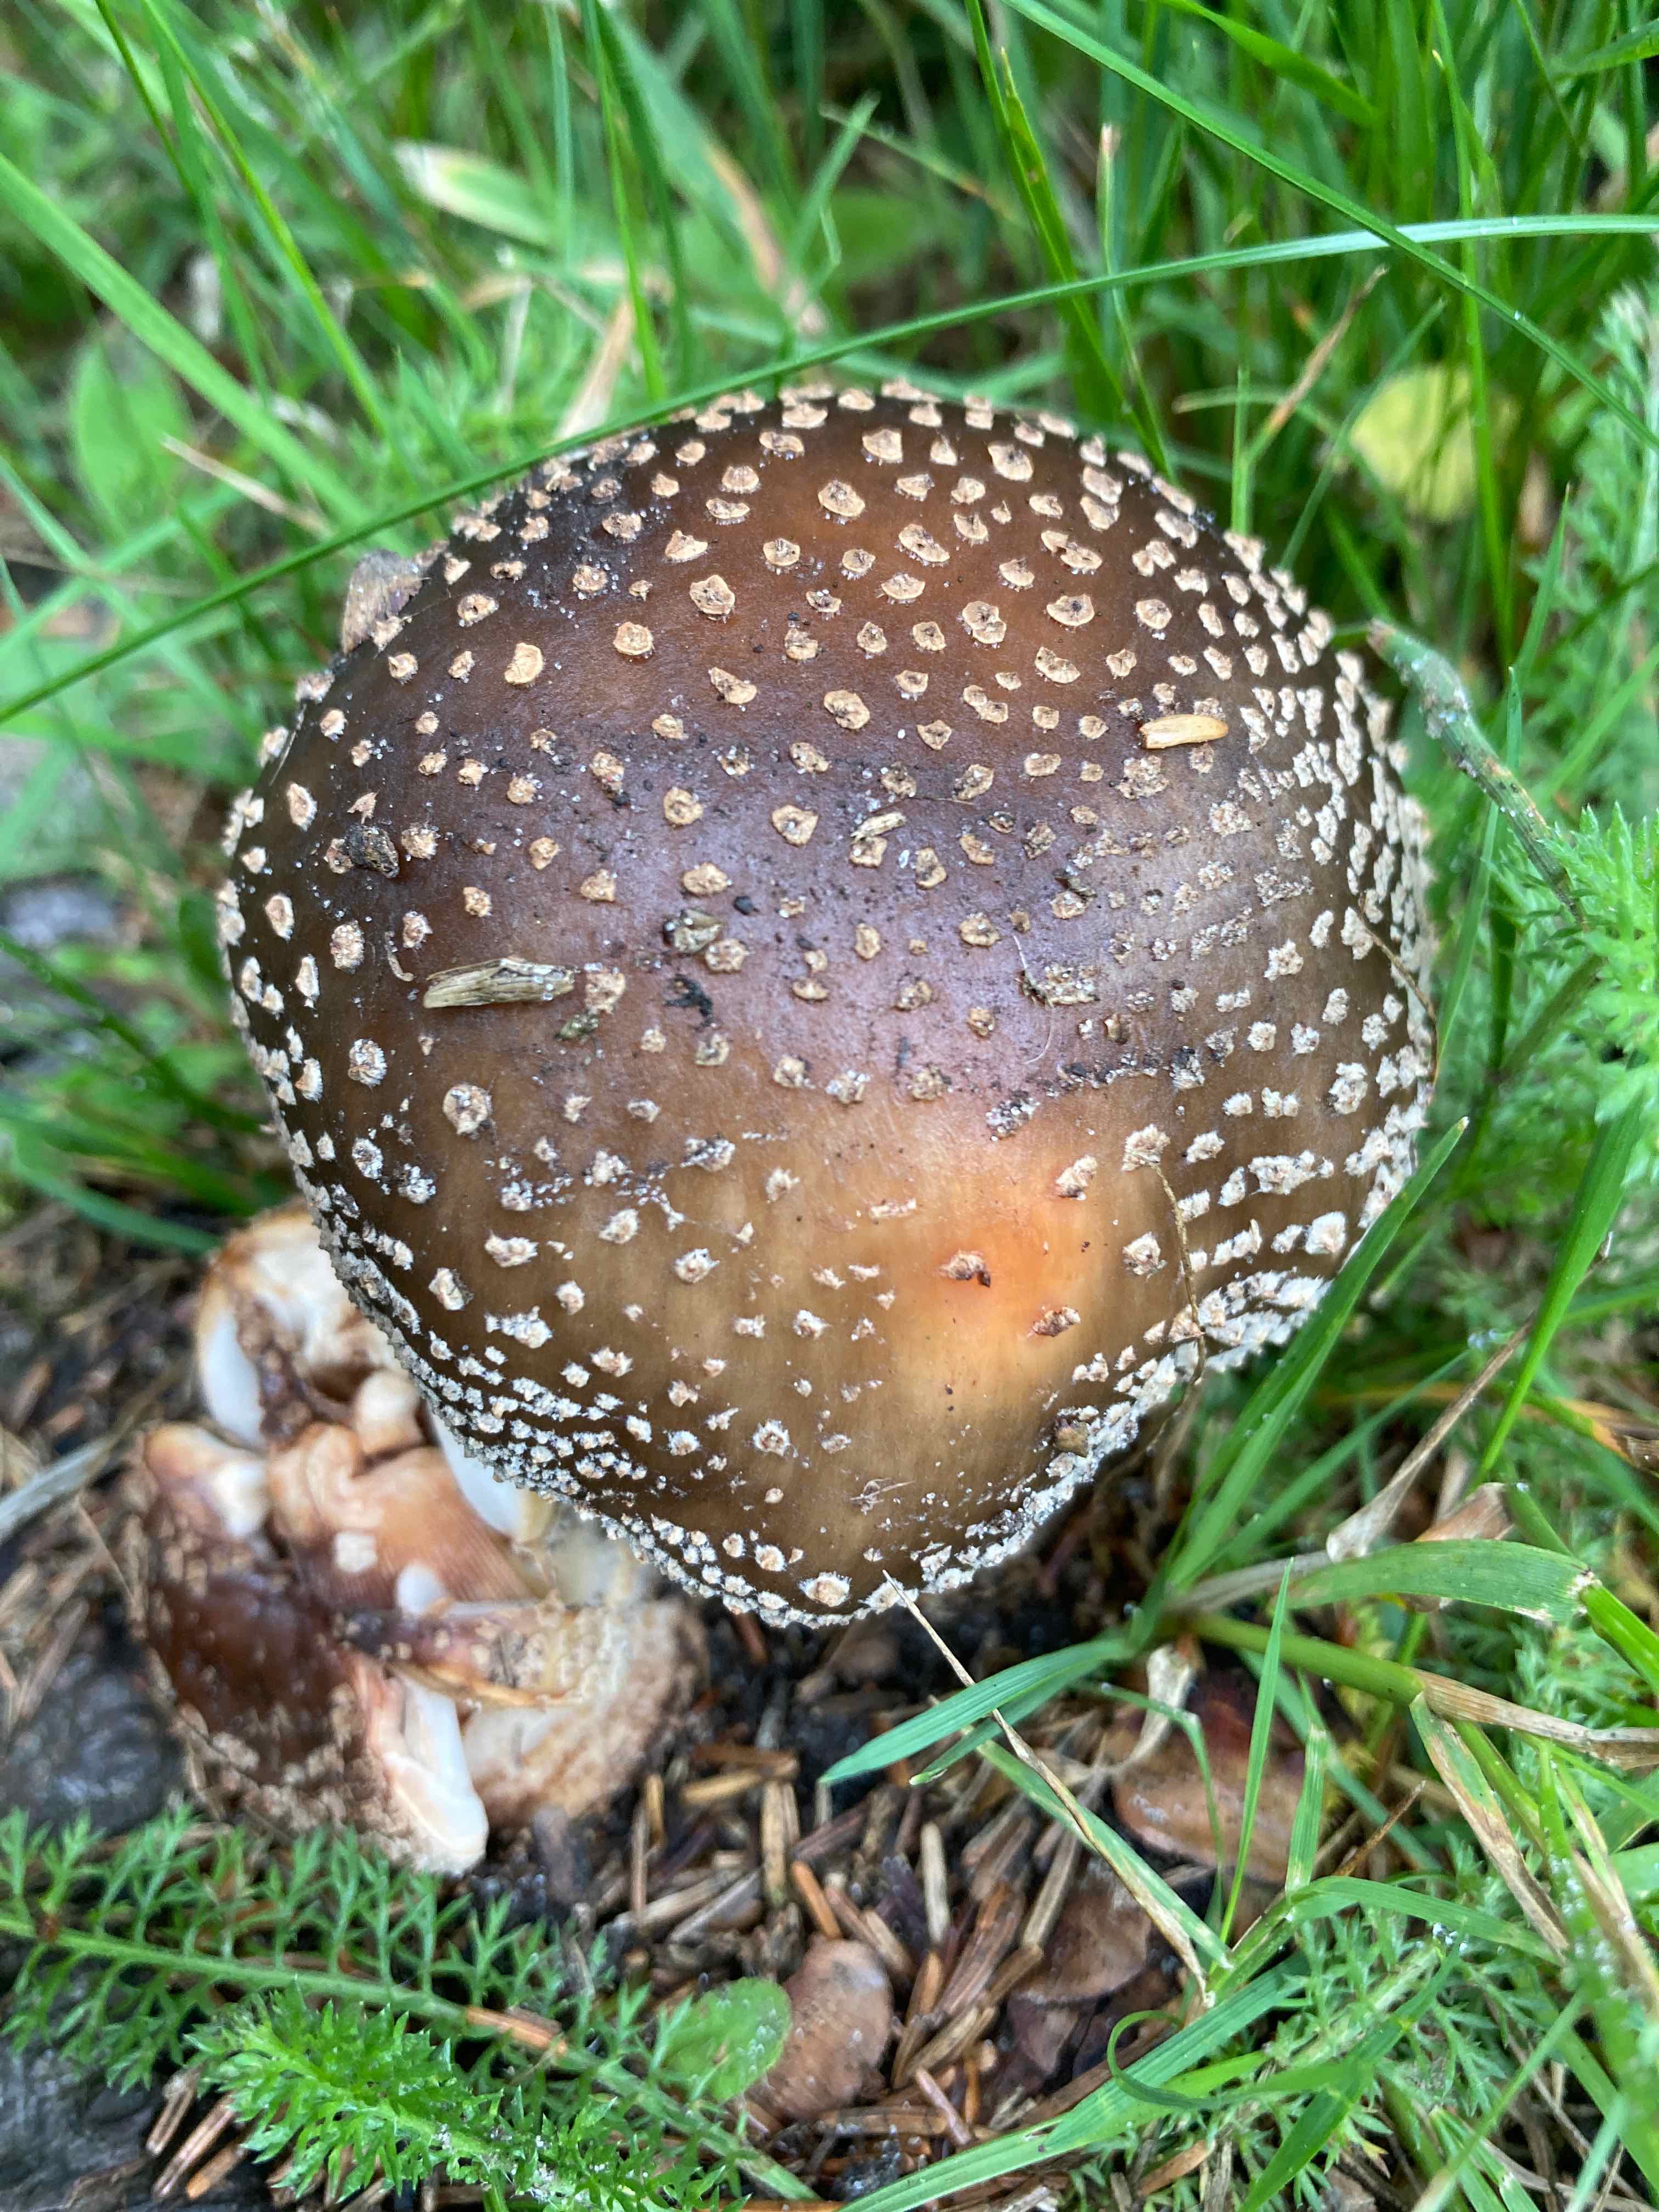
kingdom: Fungi
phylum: Basidiomycota
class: Agaricomycetes
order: Agaricales
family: Amanitaceae
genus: Amanita
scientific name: Amanita rubescens
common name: rødmende fluesvamp
